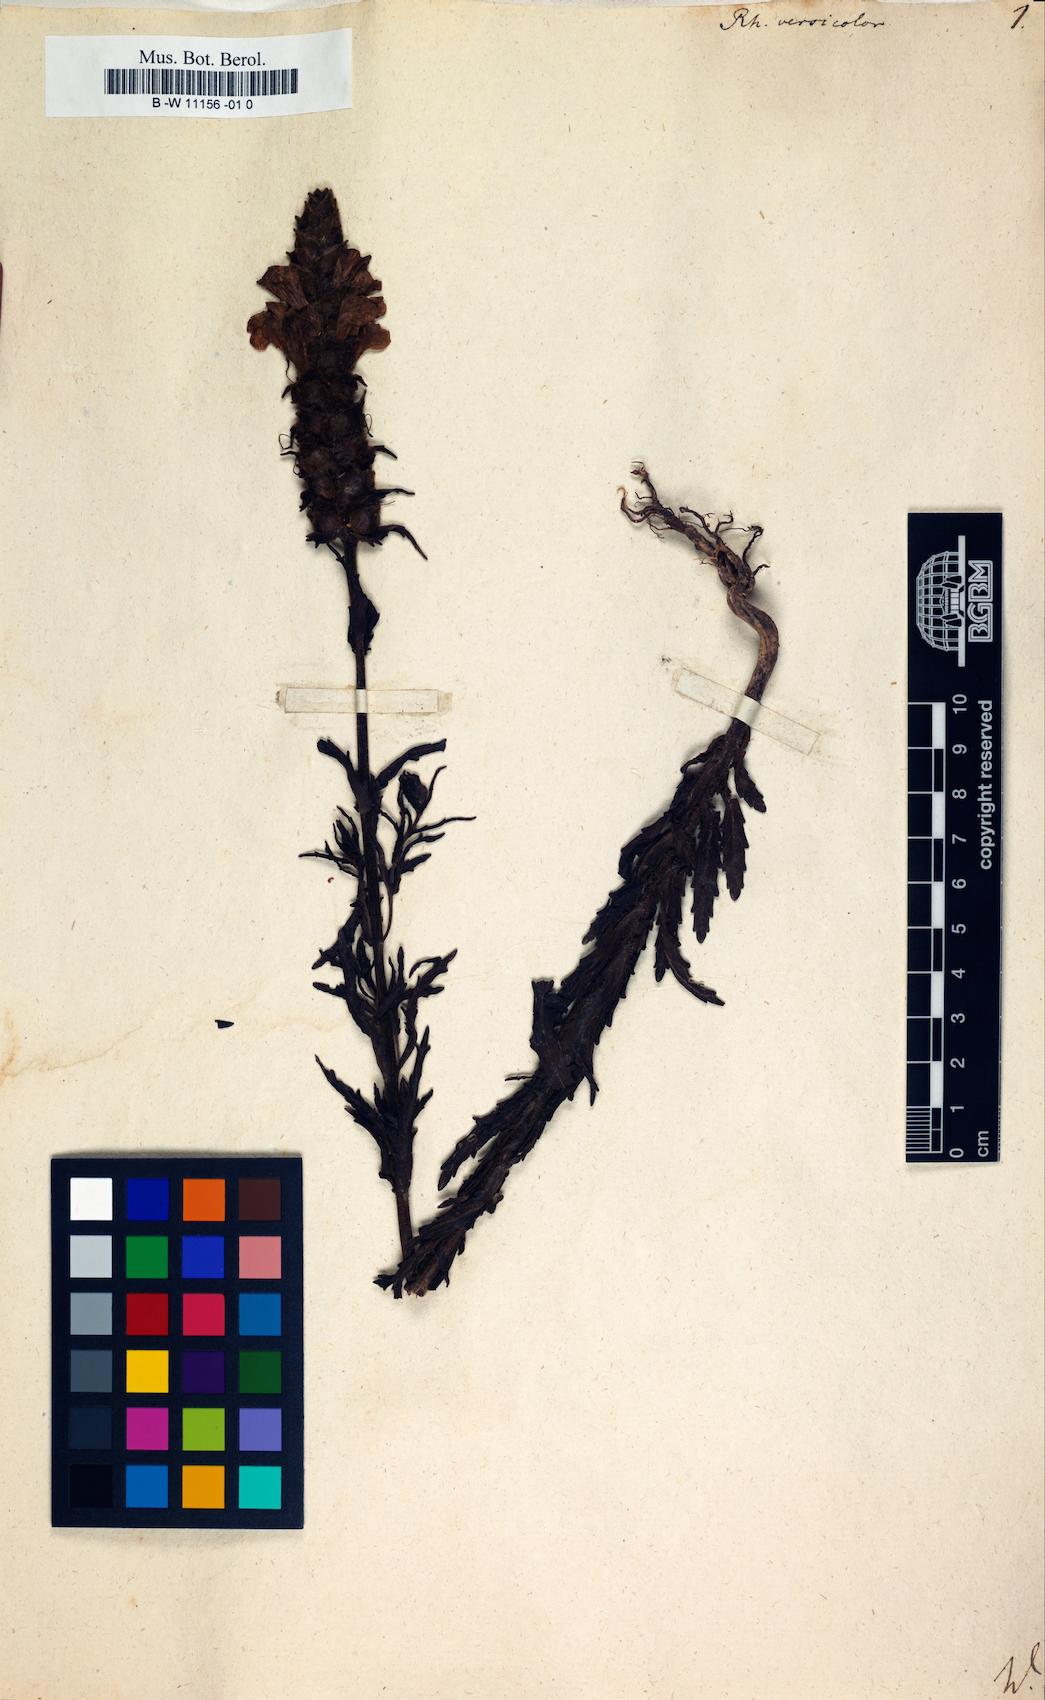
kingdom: Plantae
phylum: Tracheophyta
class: Magnoliopsida
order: Lamiales
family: Orobanchaceae
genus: Bellardia
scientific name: Bellardia trixago
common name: Mediterranean lineseed
